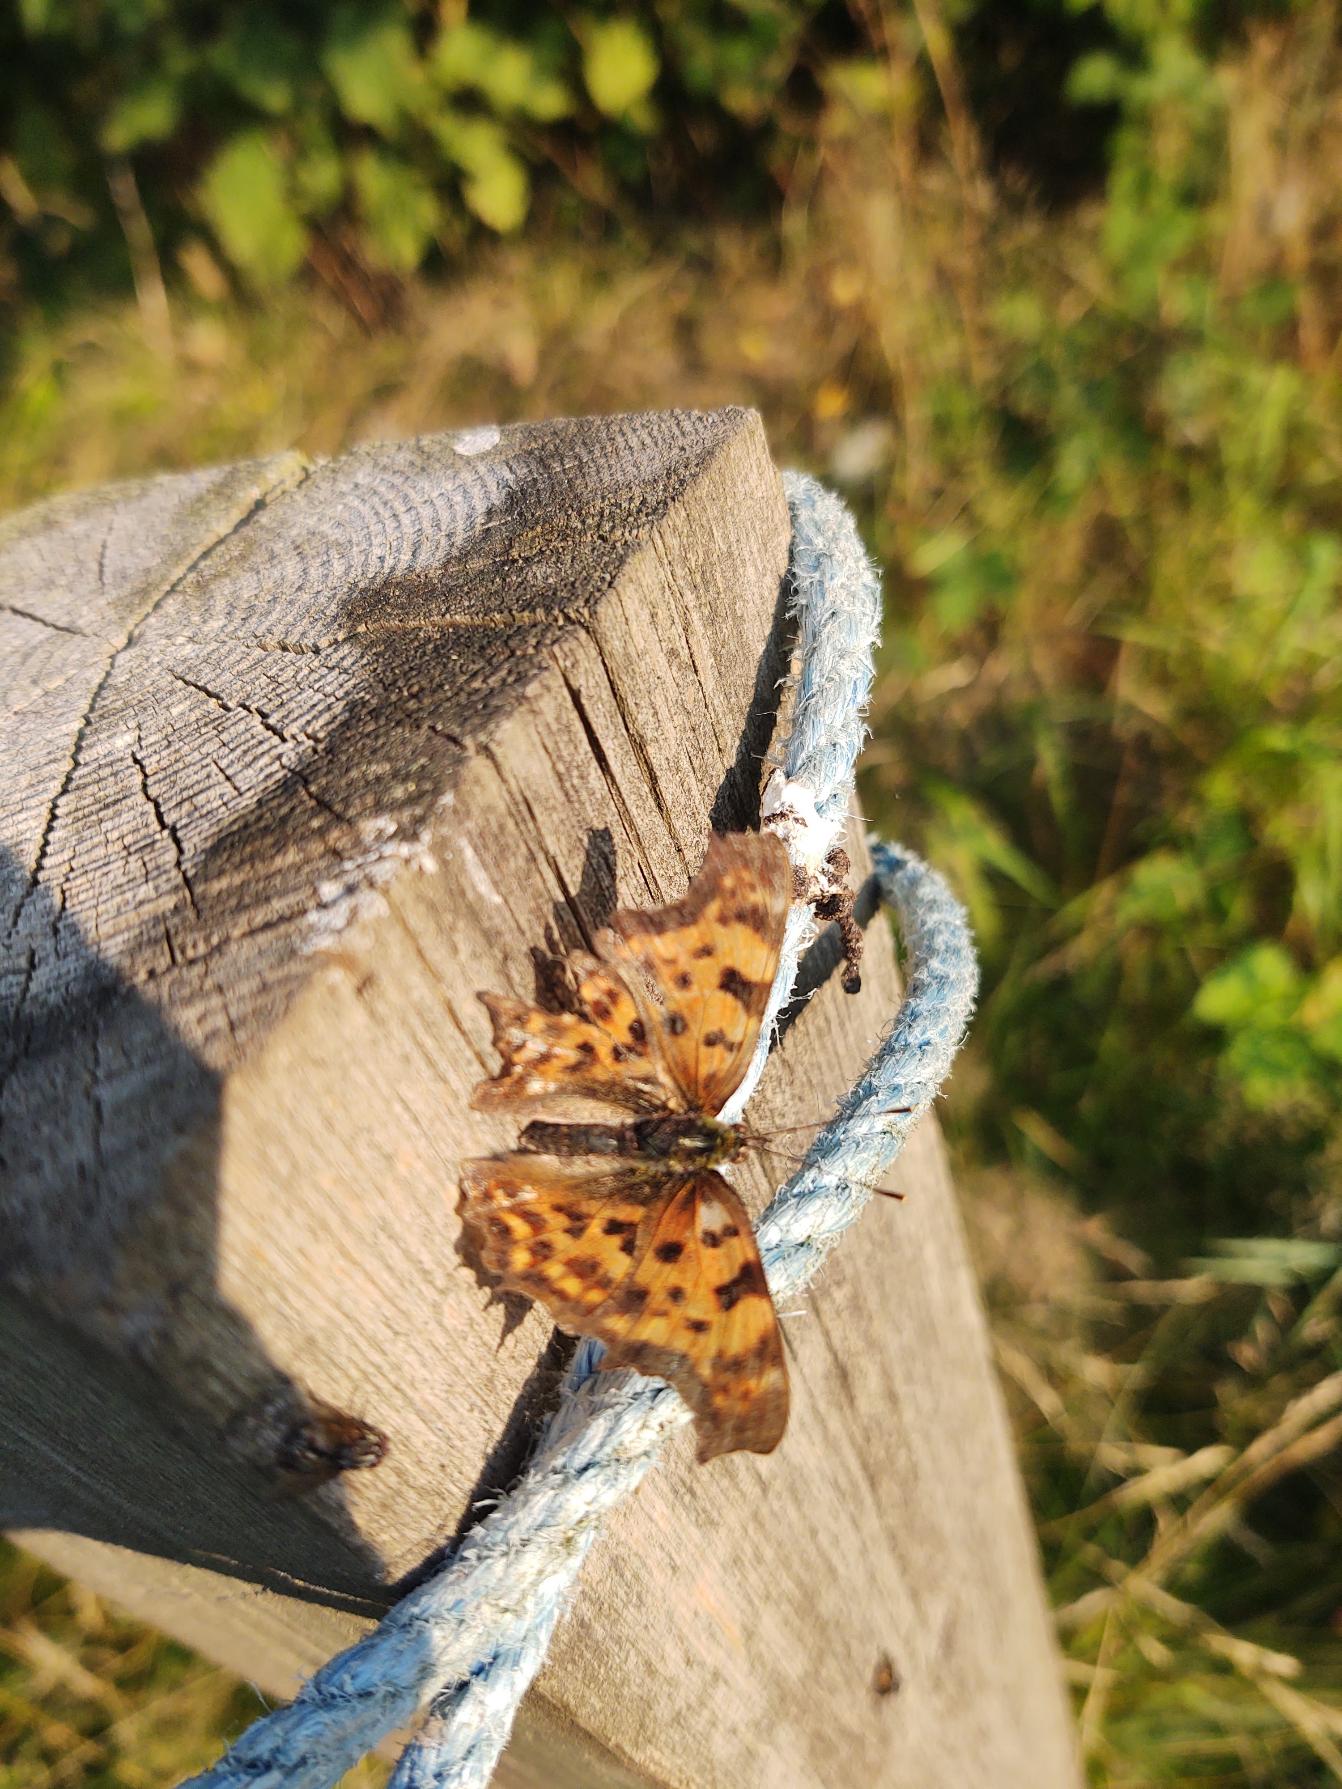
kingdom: Animalia
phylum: Arthropoda
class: Insecta
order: Lepidoptera
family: Nymphalidae
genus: Polygonia
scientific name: Polygonia c-album
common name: Det hvide C
